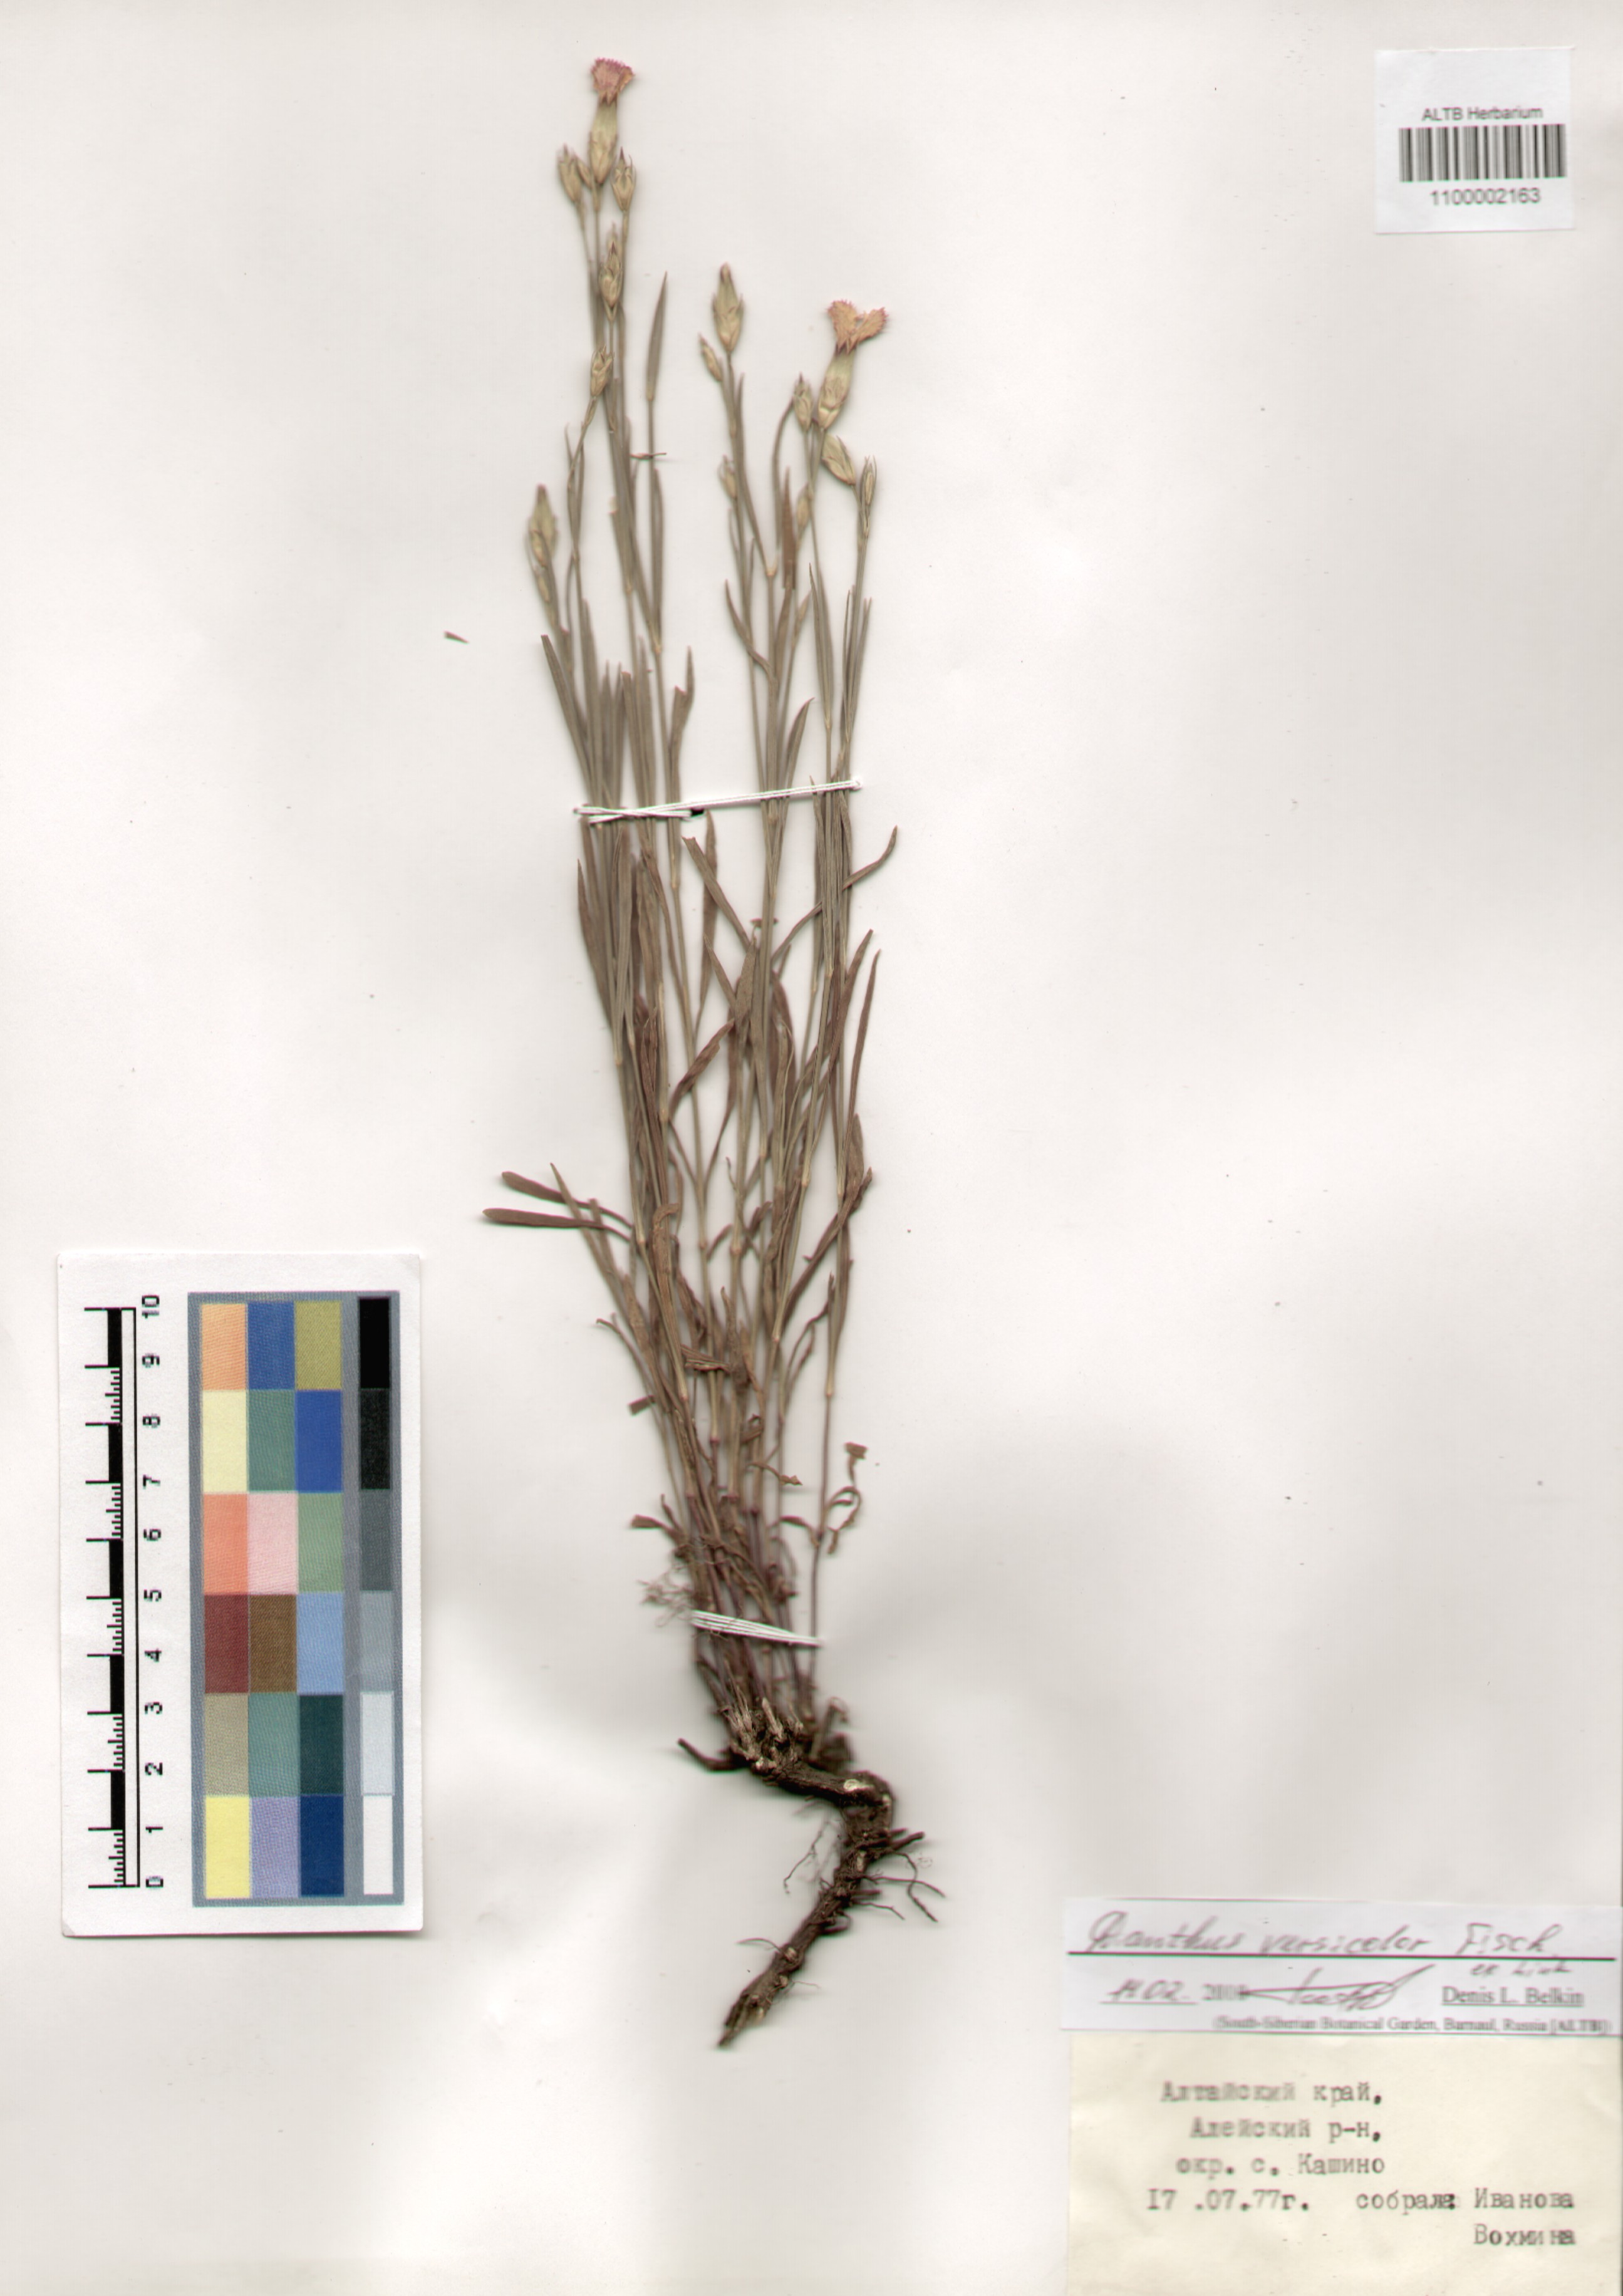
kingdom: Plantae
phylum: Tracheophyta
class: Magnoliopsida
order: Caryophyllales
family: Caryophyllaceae
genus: Dianthus
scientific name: Dianthus chinensis
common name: Rainbow pink
